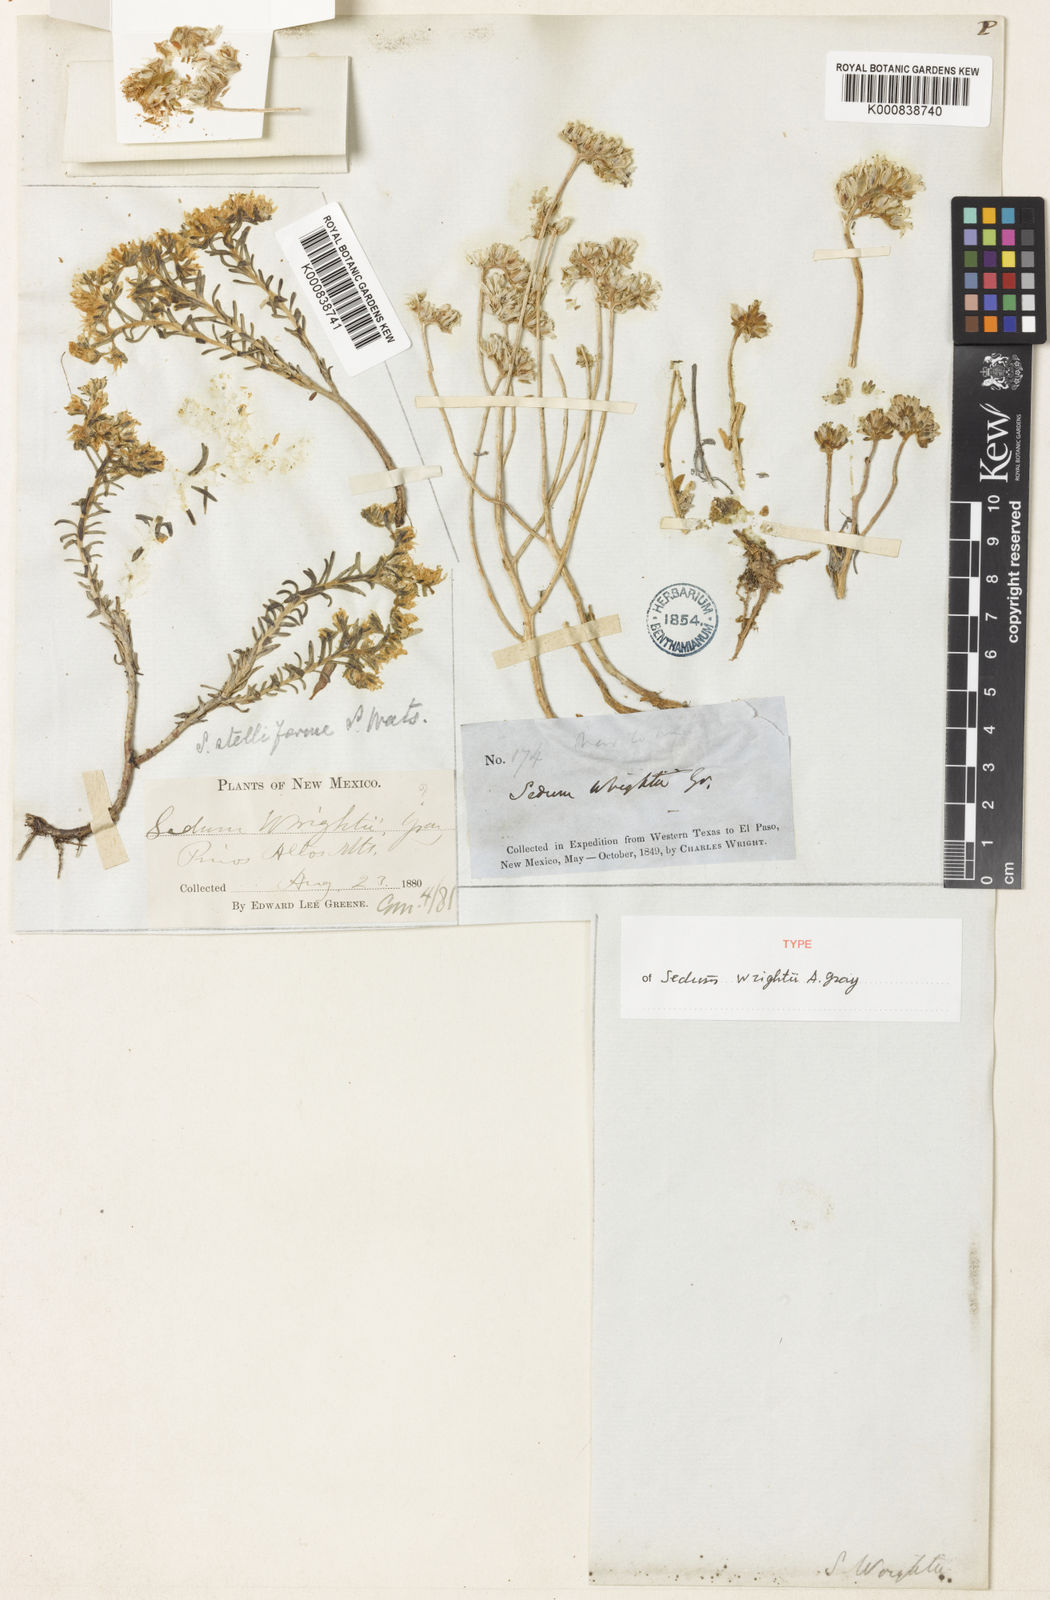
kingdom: Plantae
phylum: Tracheophyta
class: Magnoliopsida
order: Saxifragales
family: Crassulaceae
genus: Sedum
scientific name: Sedum wrightii
